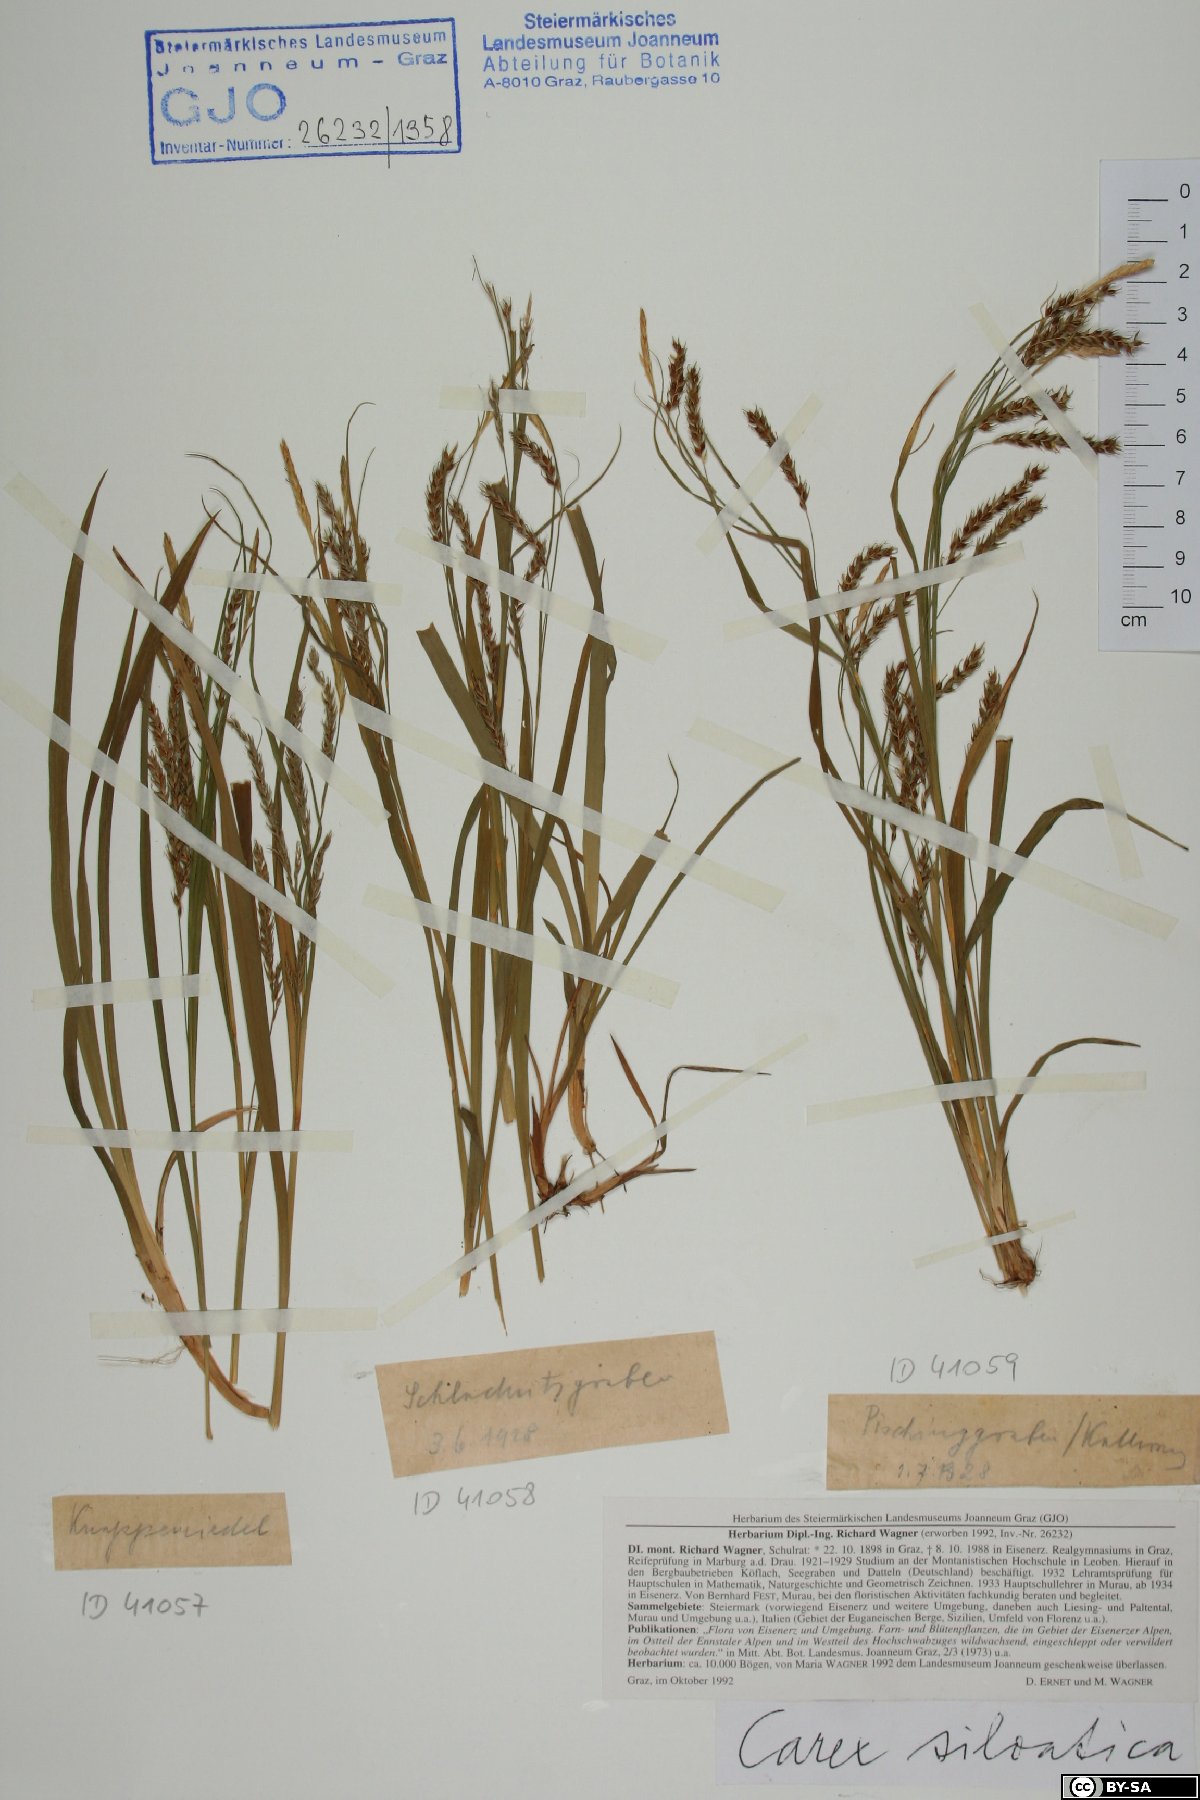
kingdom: Plantae
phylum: Tracheophyta
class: Liliopsida
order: Poales
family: Cyperaceae
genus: Carex
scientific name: Carex sylvatica
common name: Wood-sedge
